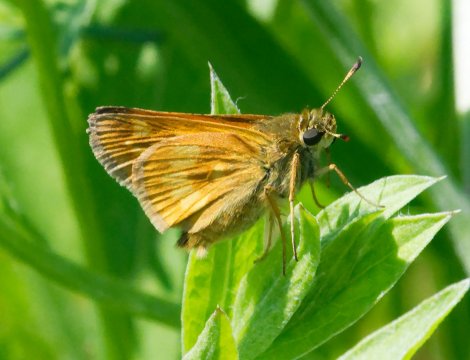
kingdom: Animalia
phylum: Arthropoda
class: Insecta
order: Lepidoptera
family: Hesperiidae
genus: Polites
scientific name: Polites
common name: Long Dash Skipper
